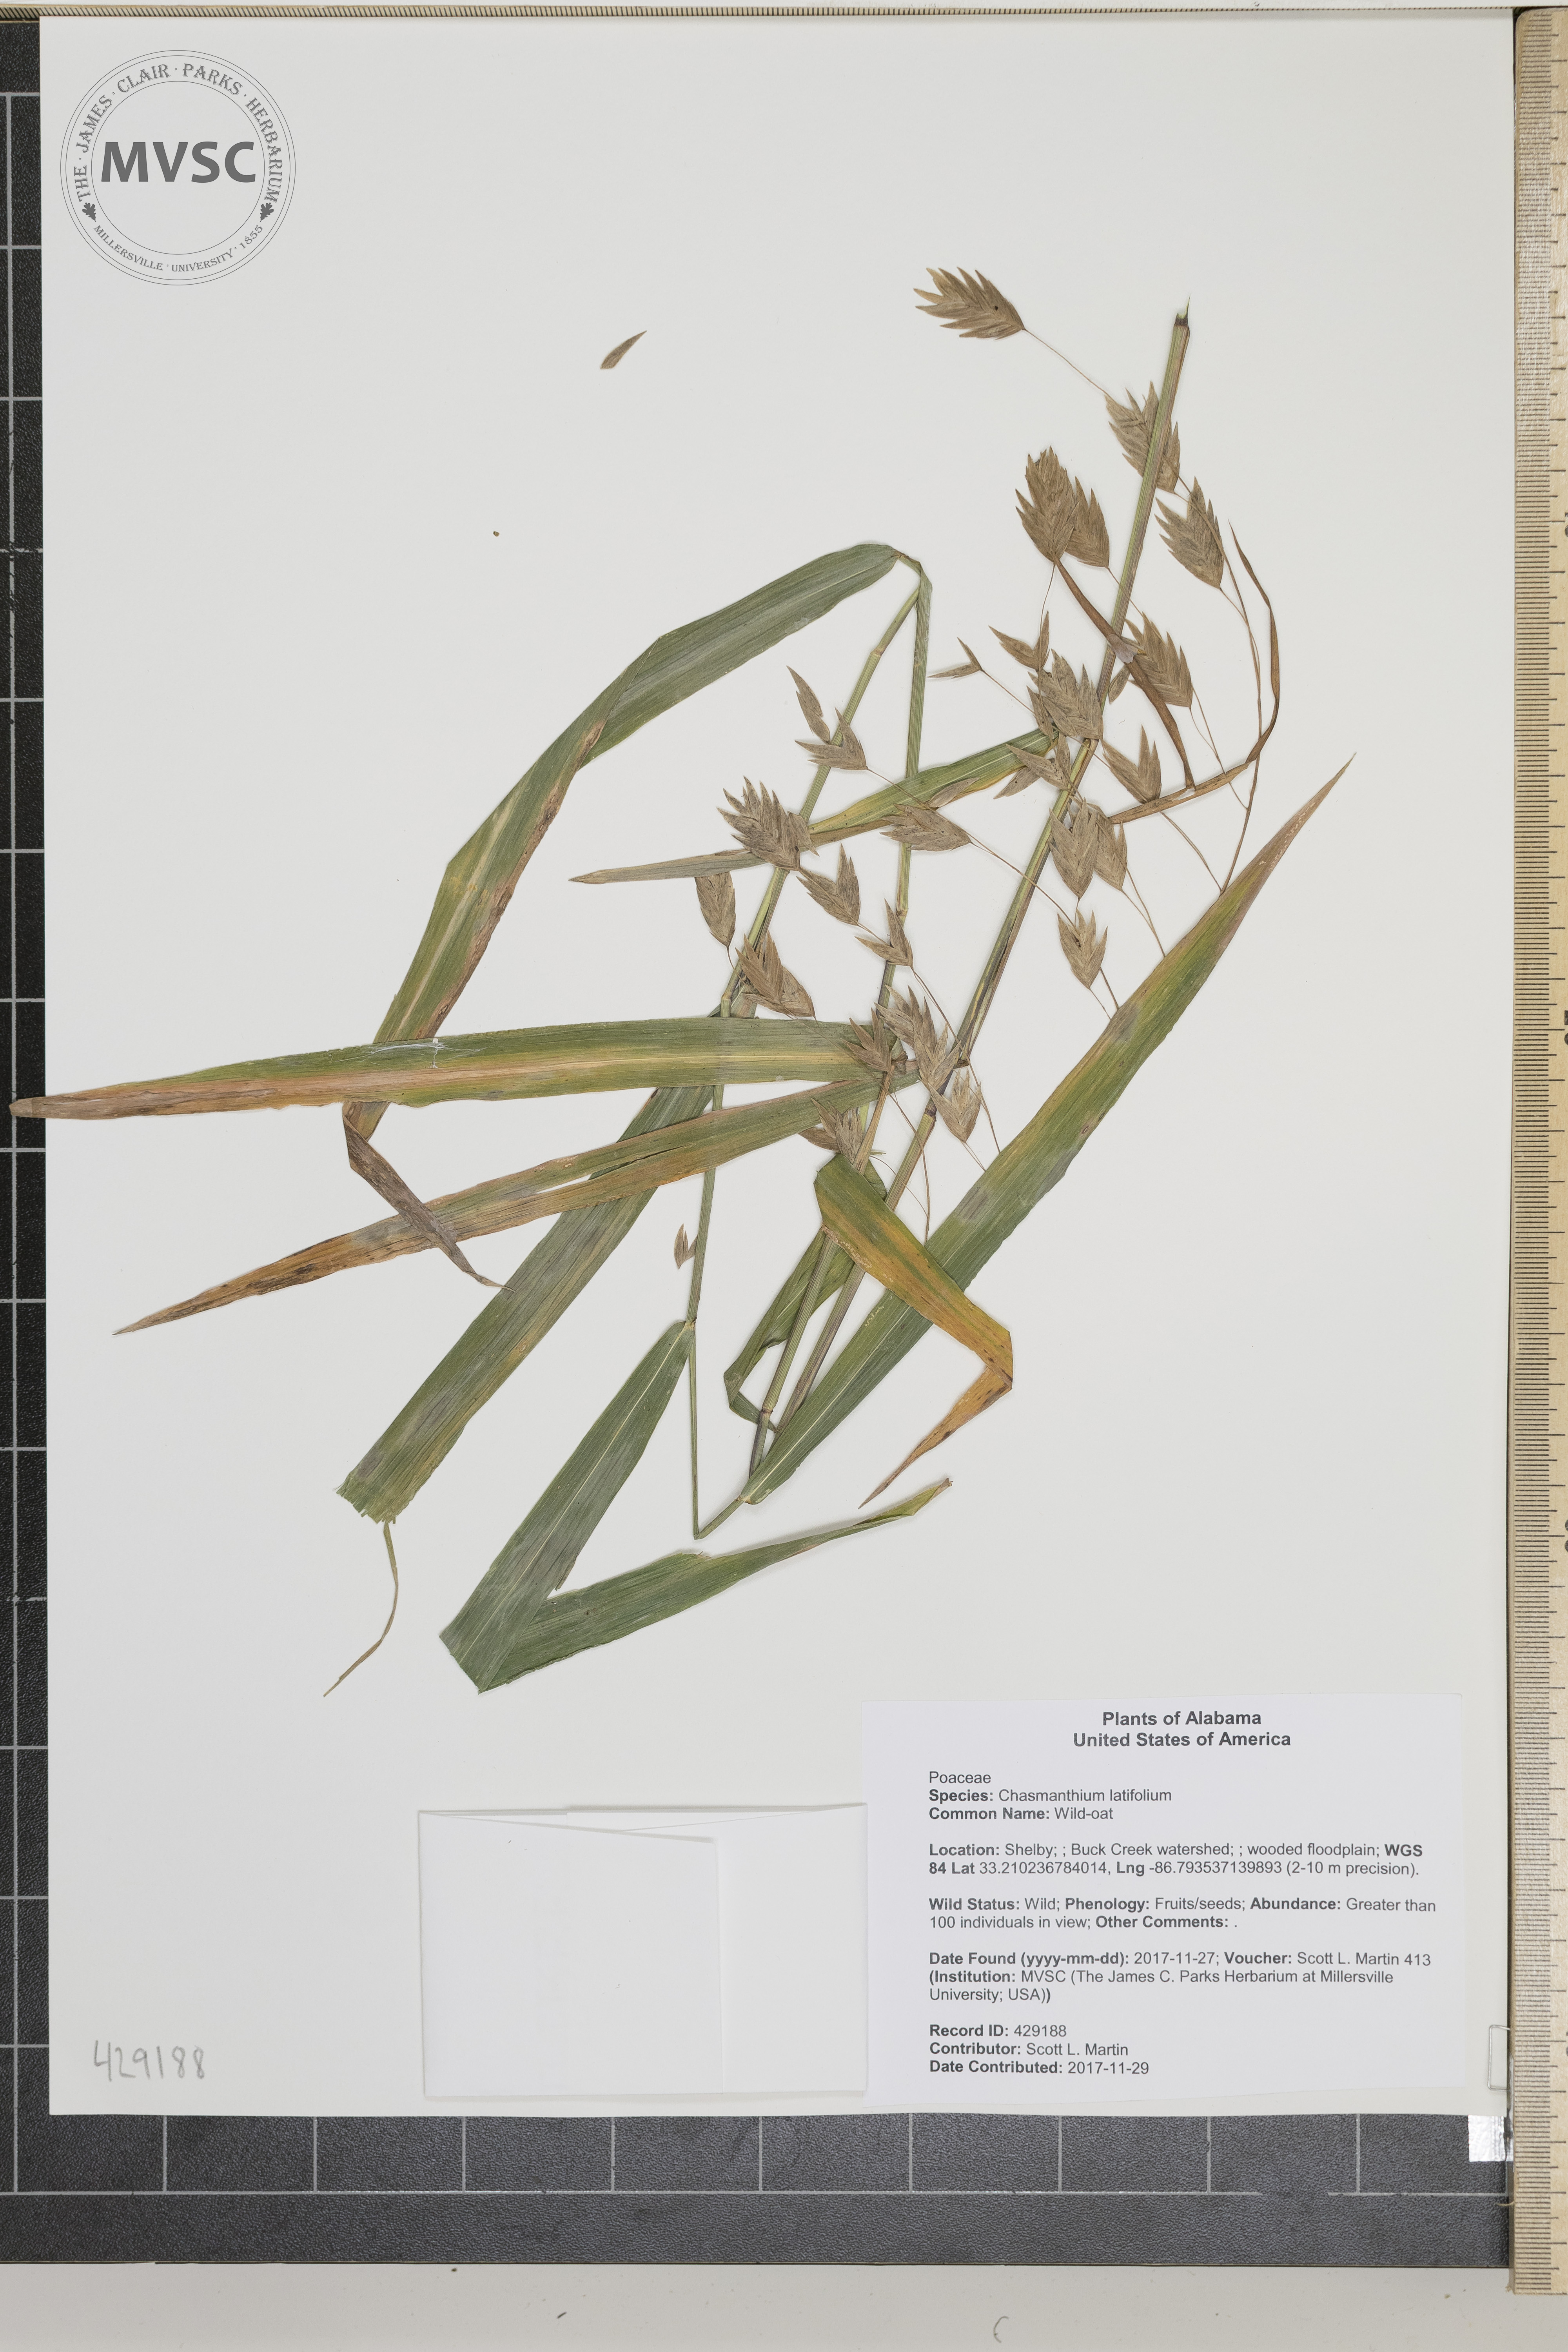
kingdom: Plantae
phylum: Tracheophyta
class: Liliopsida
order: Poales
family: Poaceae
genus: Chasmanthium
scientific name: Chasmanthium latifolium
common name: Wild-oat
